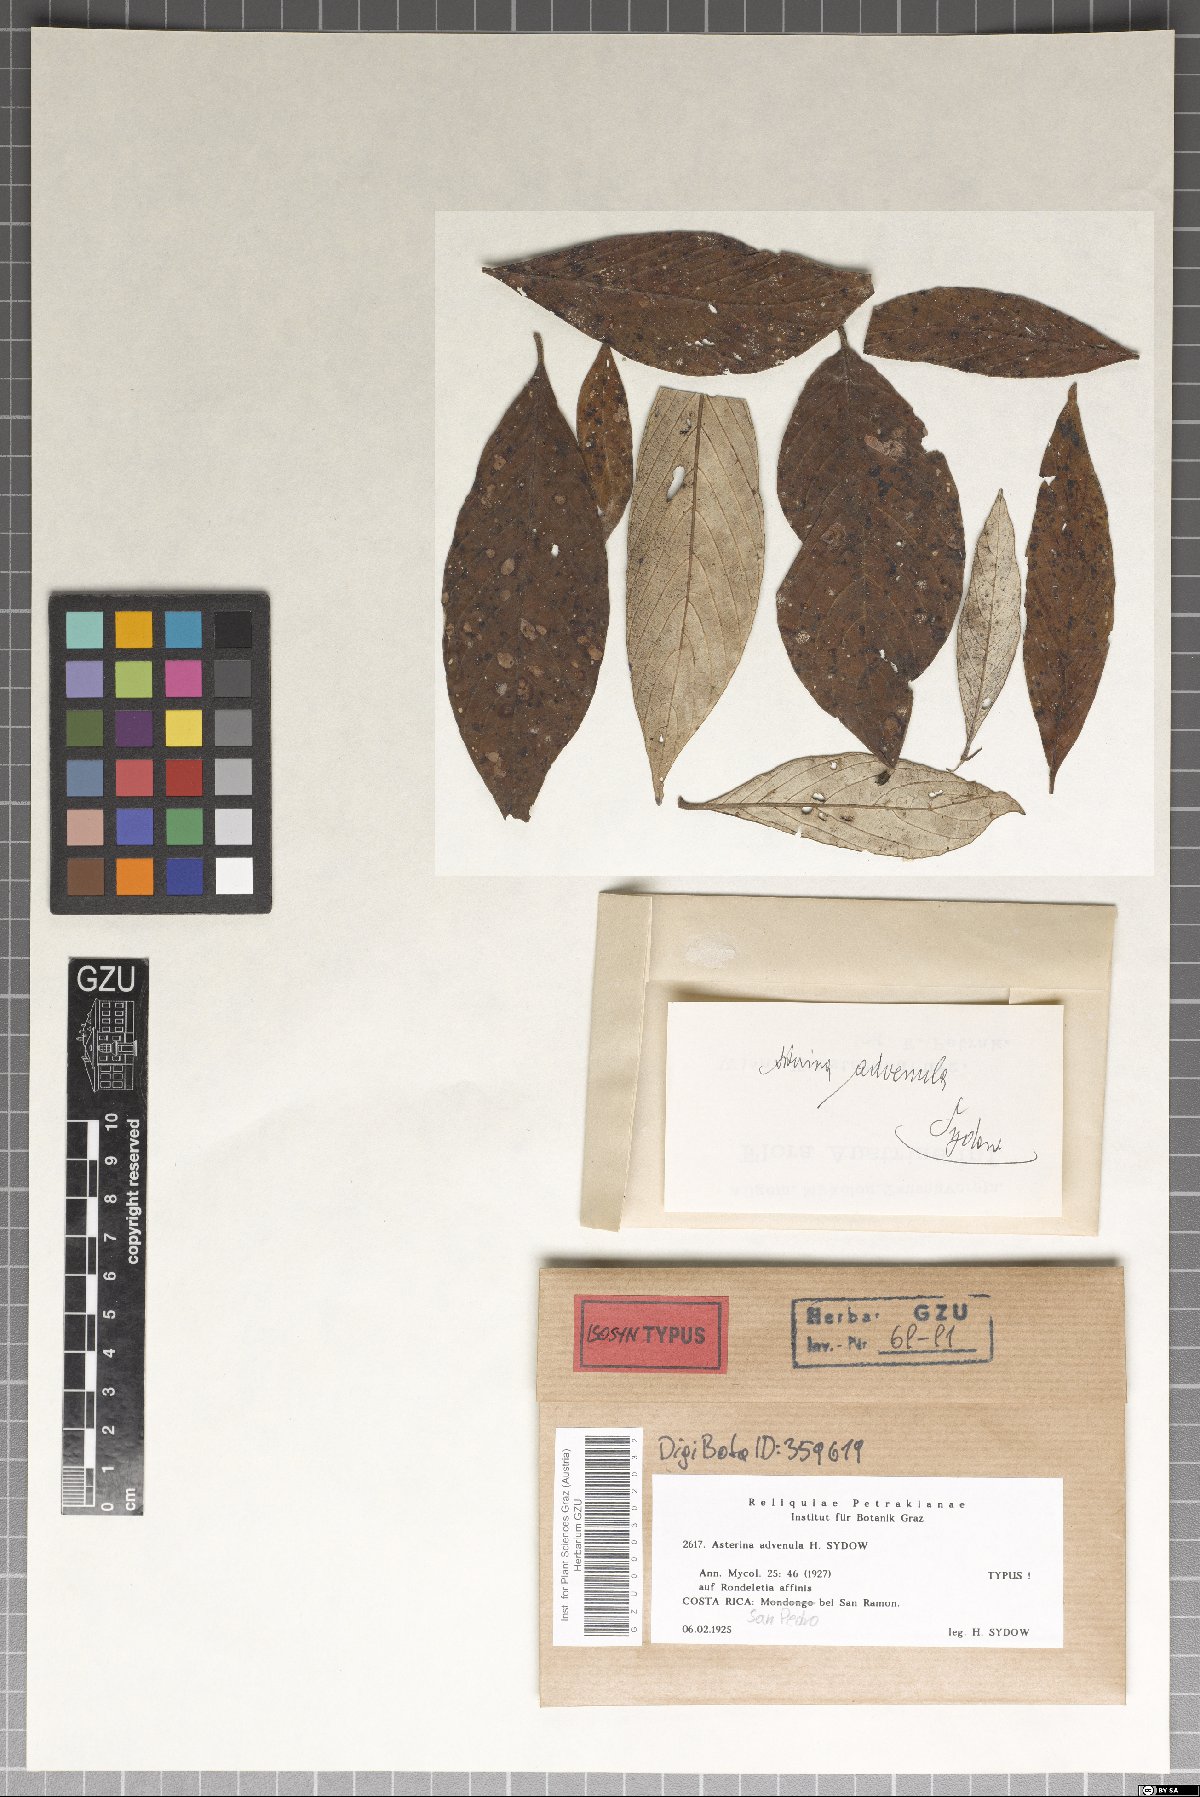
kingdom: Fungi
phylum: Ascomycota
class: Dothideomycetes
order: Asterinales
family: Asterinaceae
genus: Asterina
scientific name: Asterina advenula
